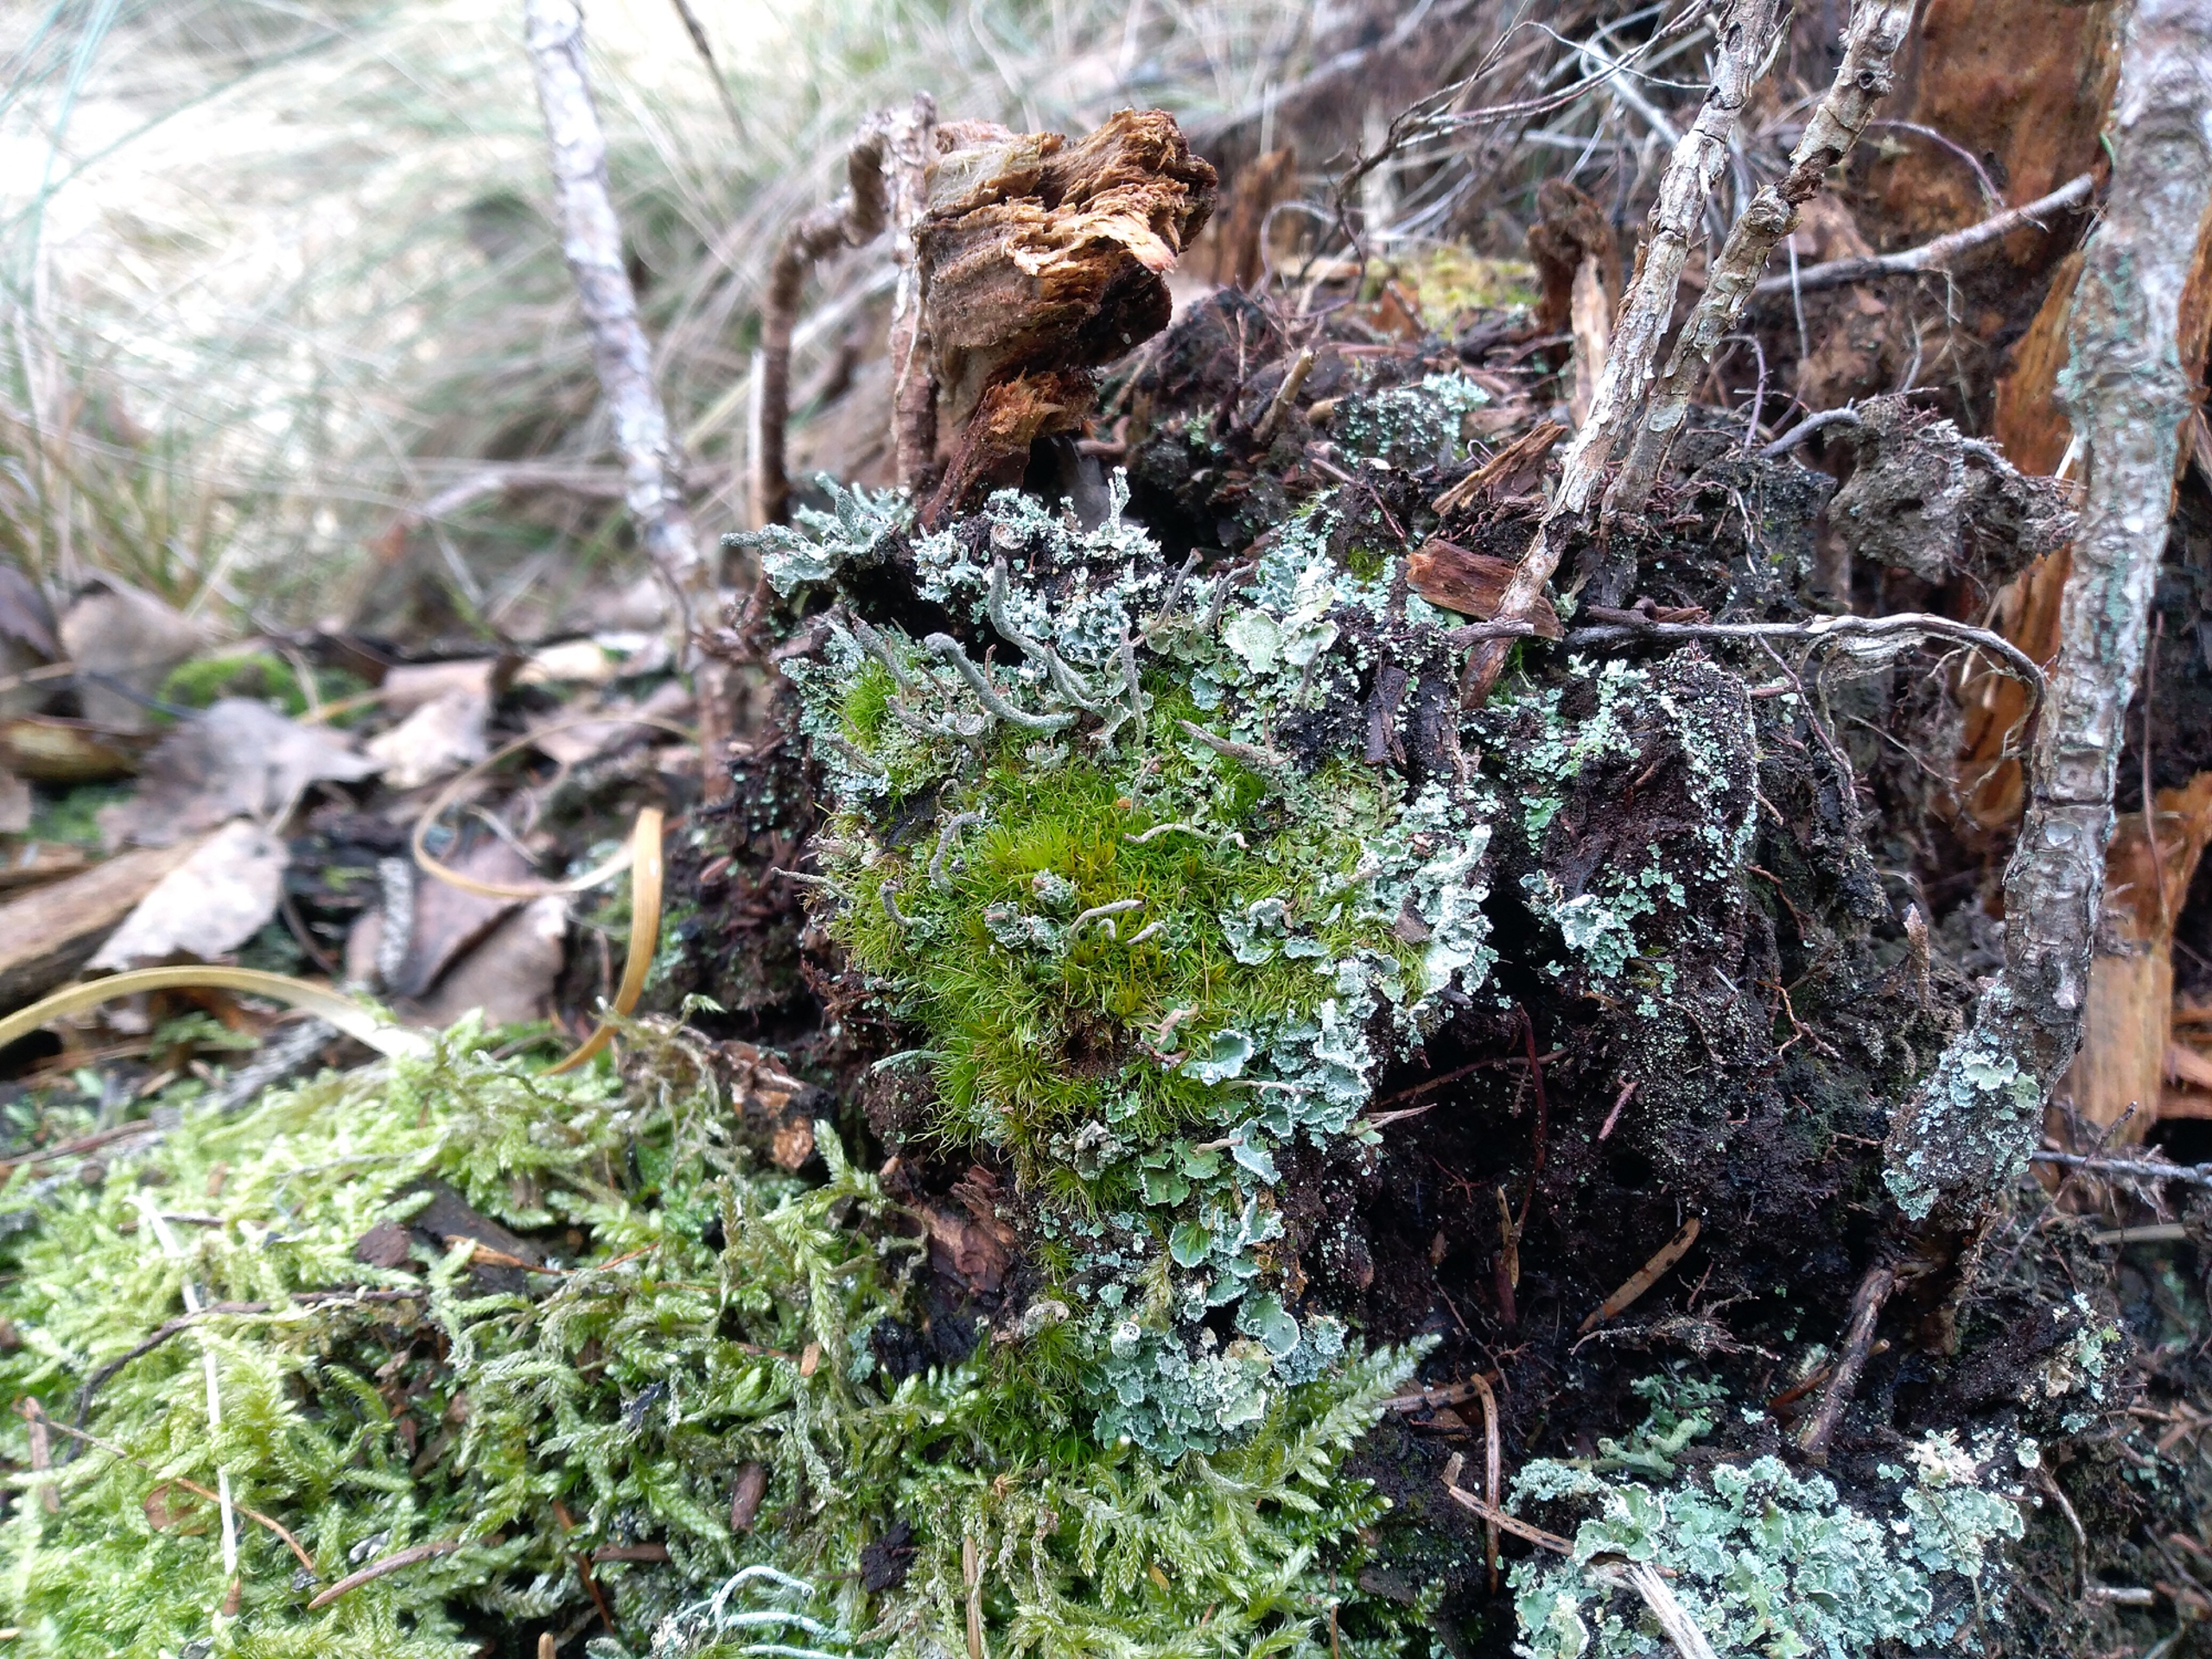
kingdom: Plantae
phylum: Bryophyta
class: Bryopsida
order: Dicranales
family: Dicranaceae
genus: Orthodicranum
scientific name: Orthodicranum flagellare
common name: Mangegrenet tyndvinge
